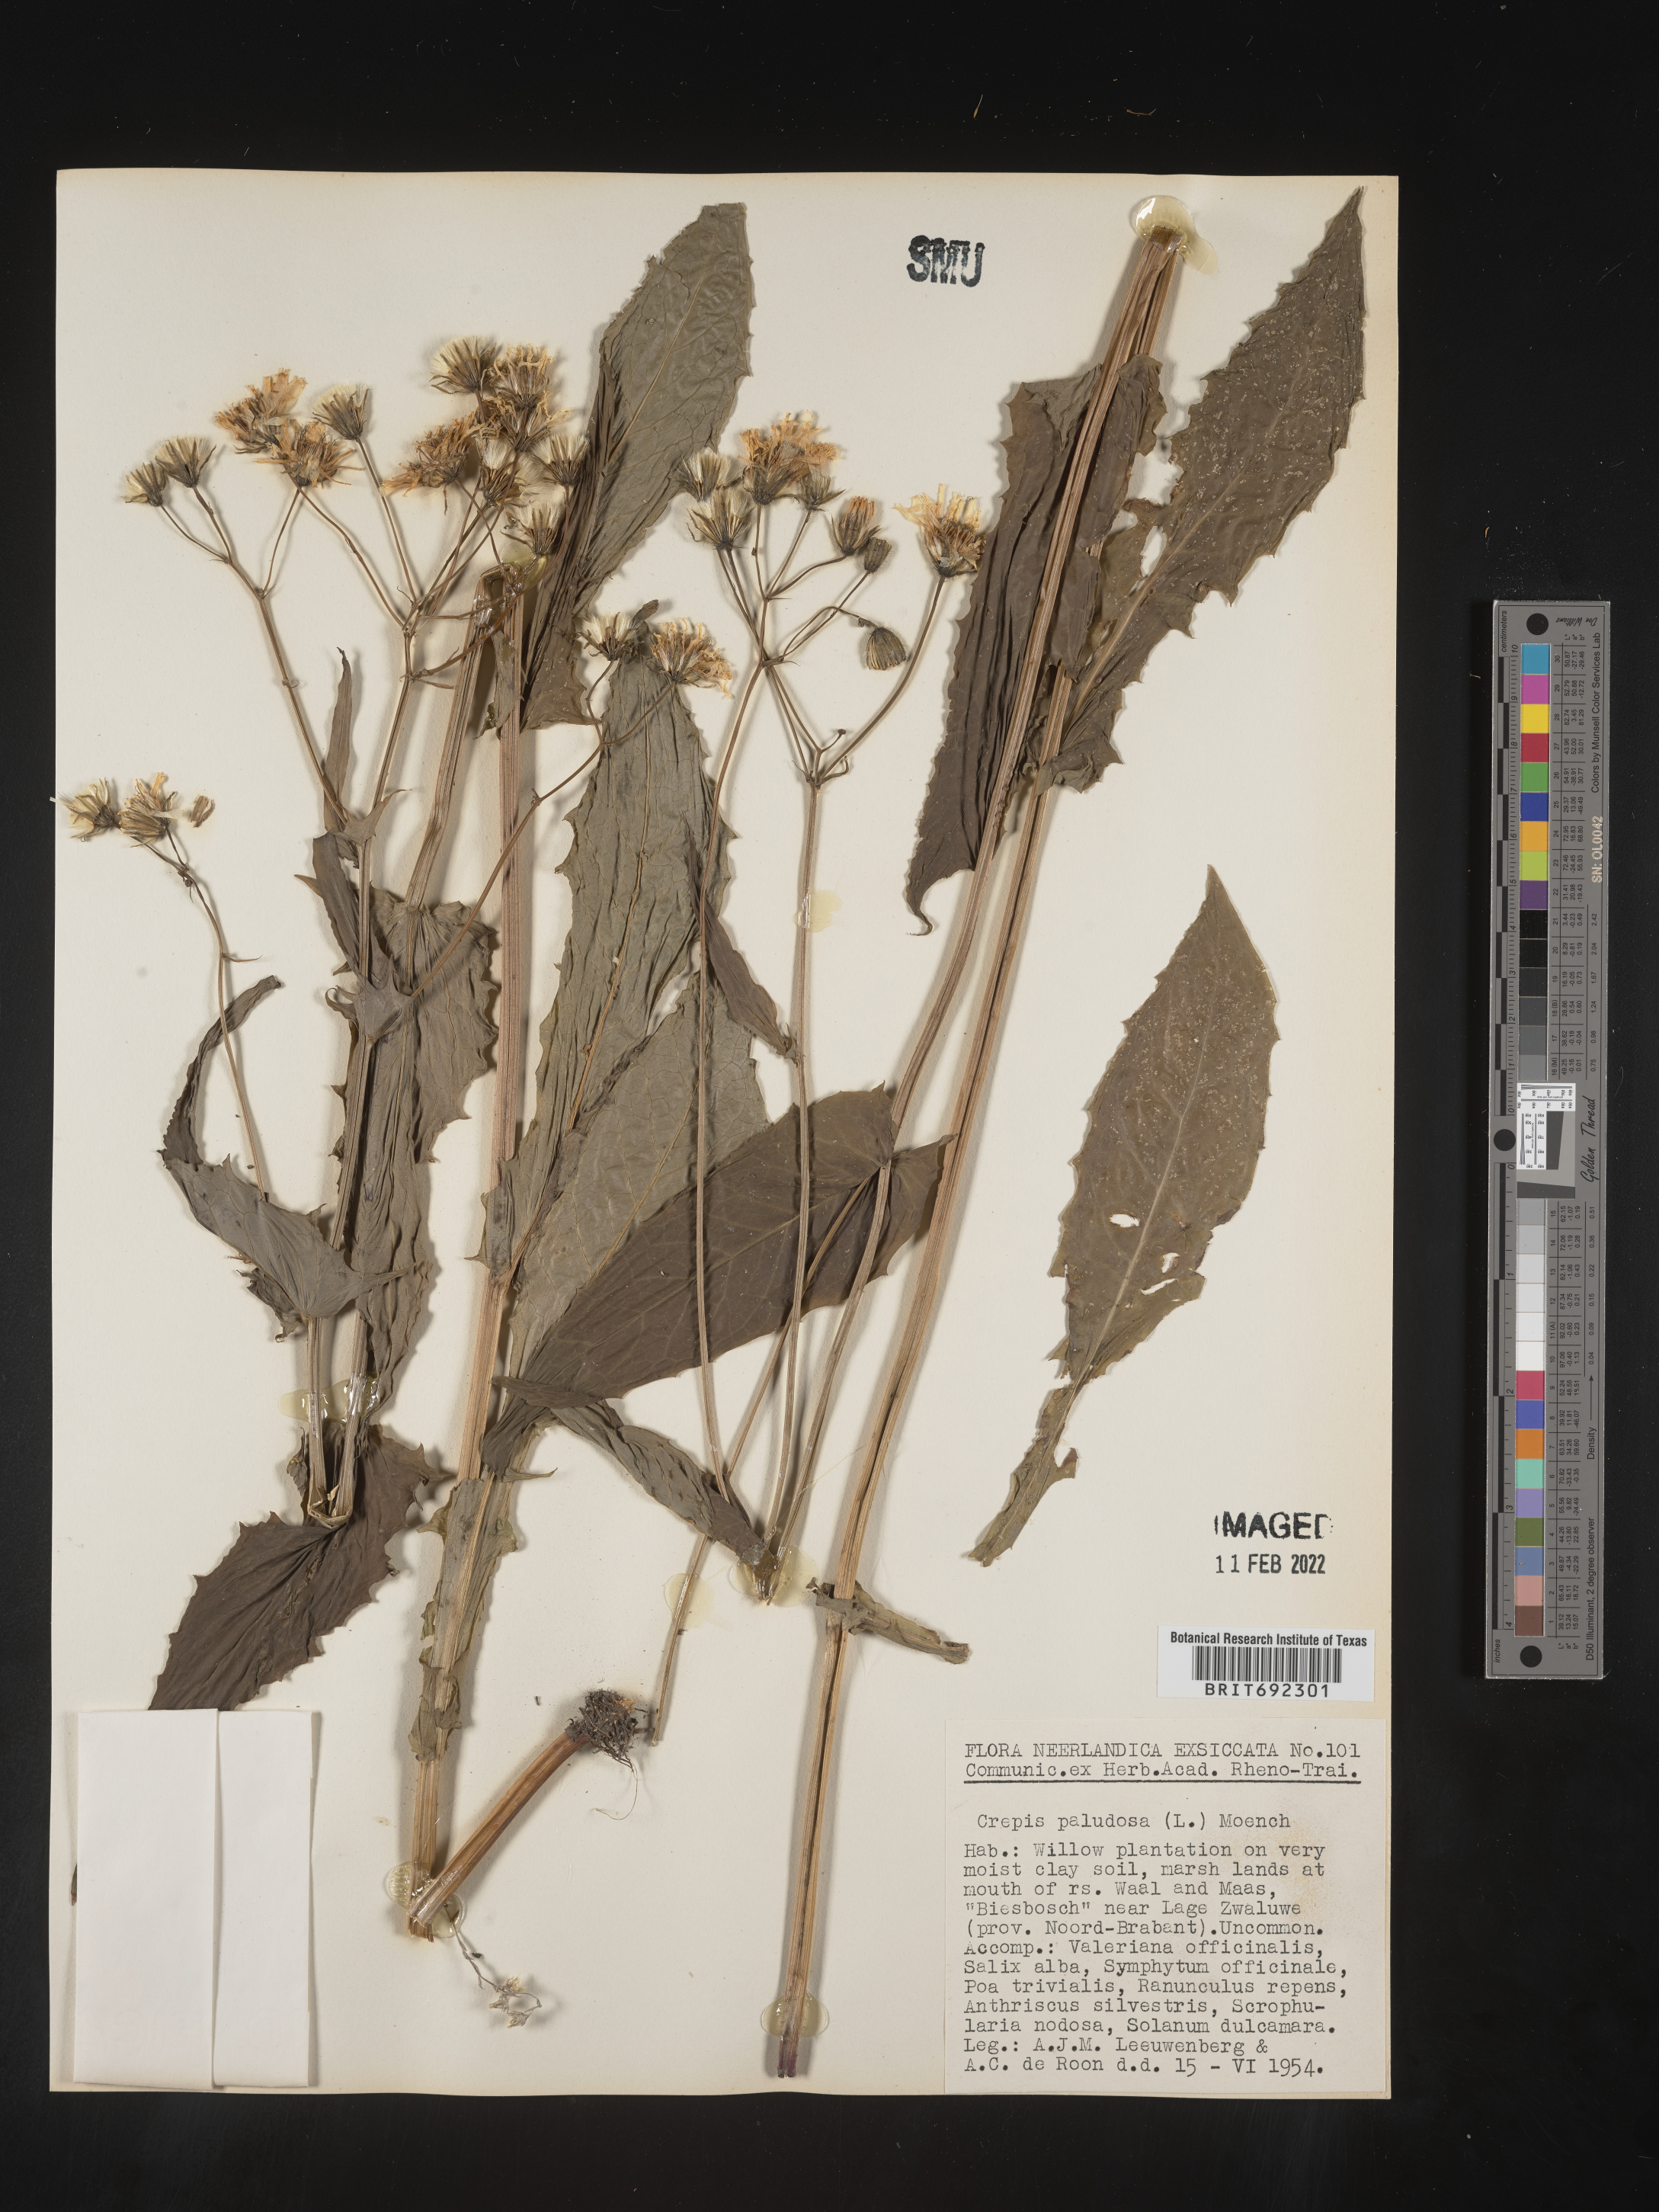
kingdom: Plantae
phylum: Tracheophyta
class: Magnoliopsida
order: Asterales
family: Asteraceae
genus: Crepis
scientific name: Crepis
